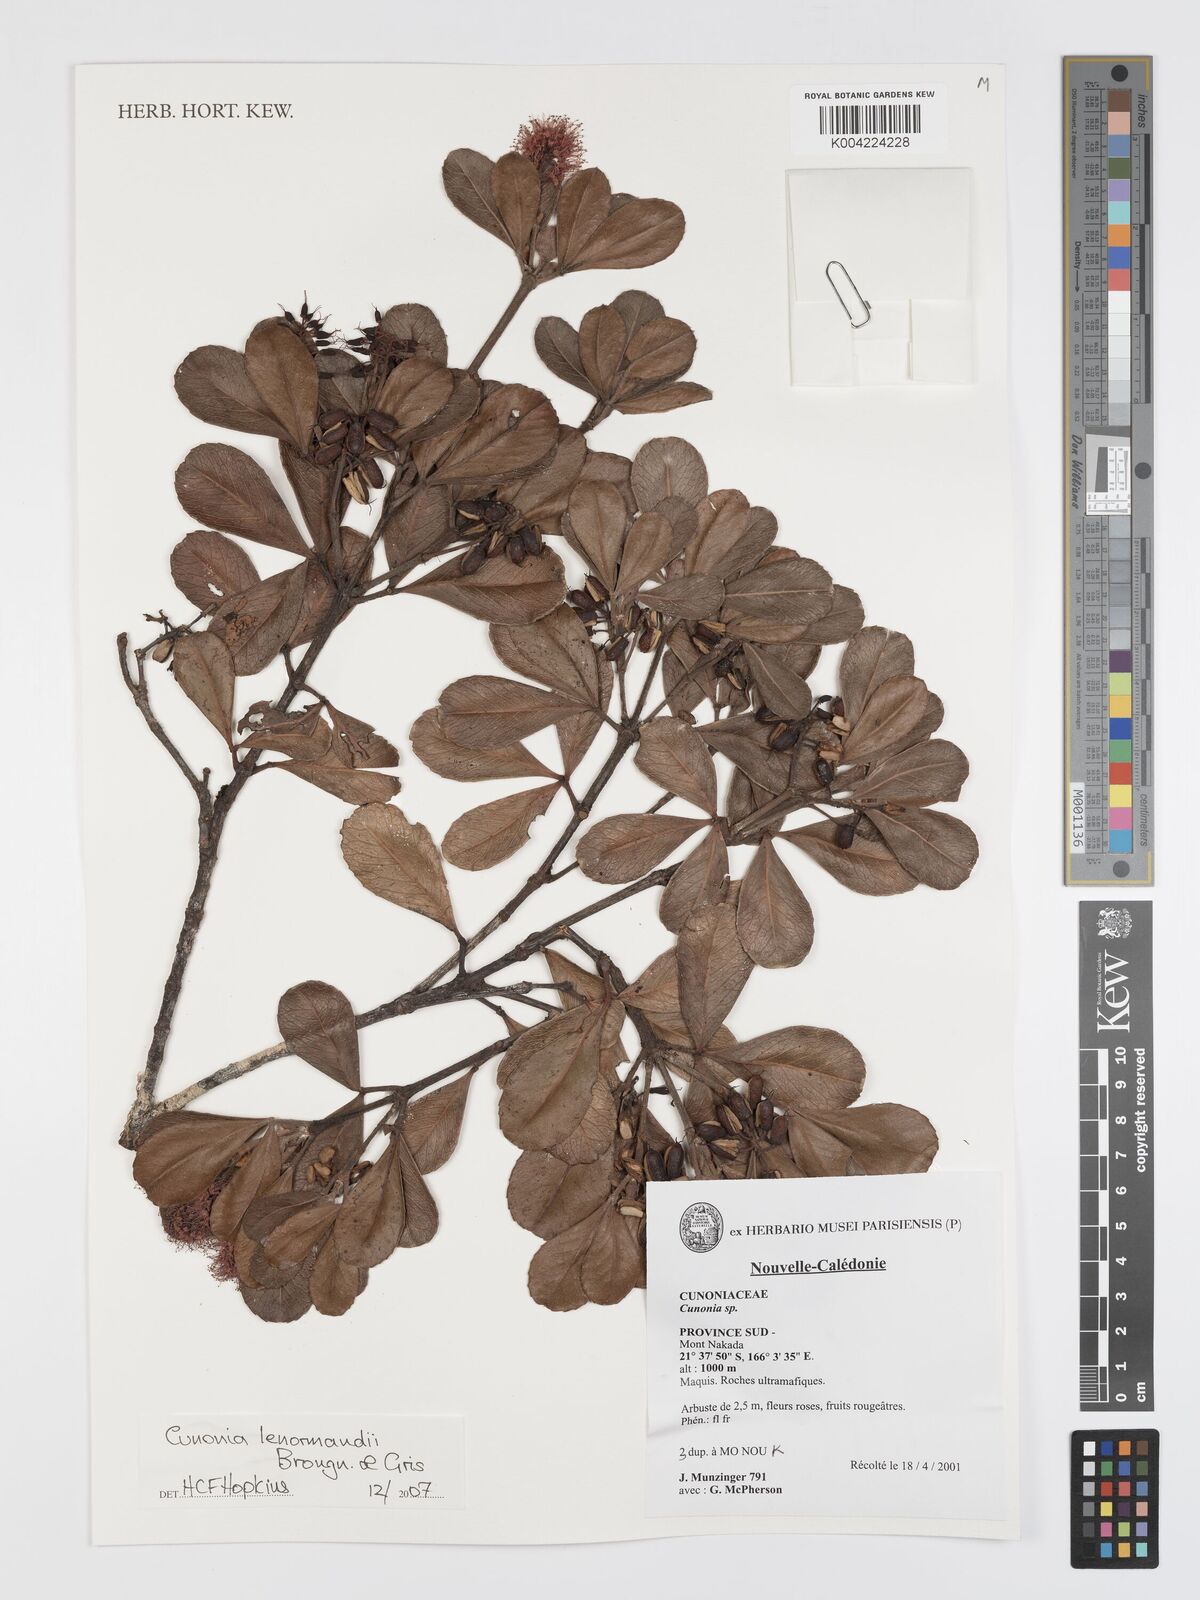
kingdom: Plantae
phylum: Tracheophyta
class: Magnoliopsida
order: Oxalidales
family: Cunoniaceae
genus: Cunonia
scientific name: Cunonia lenormandii
